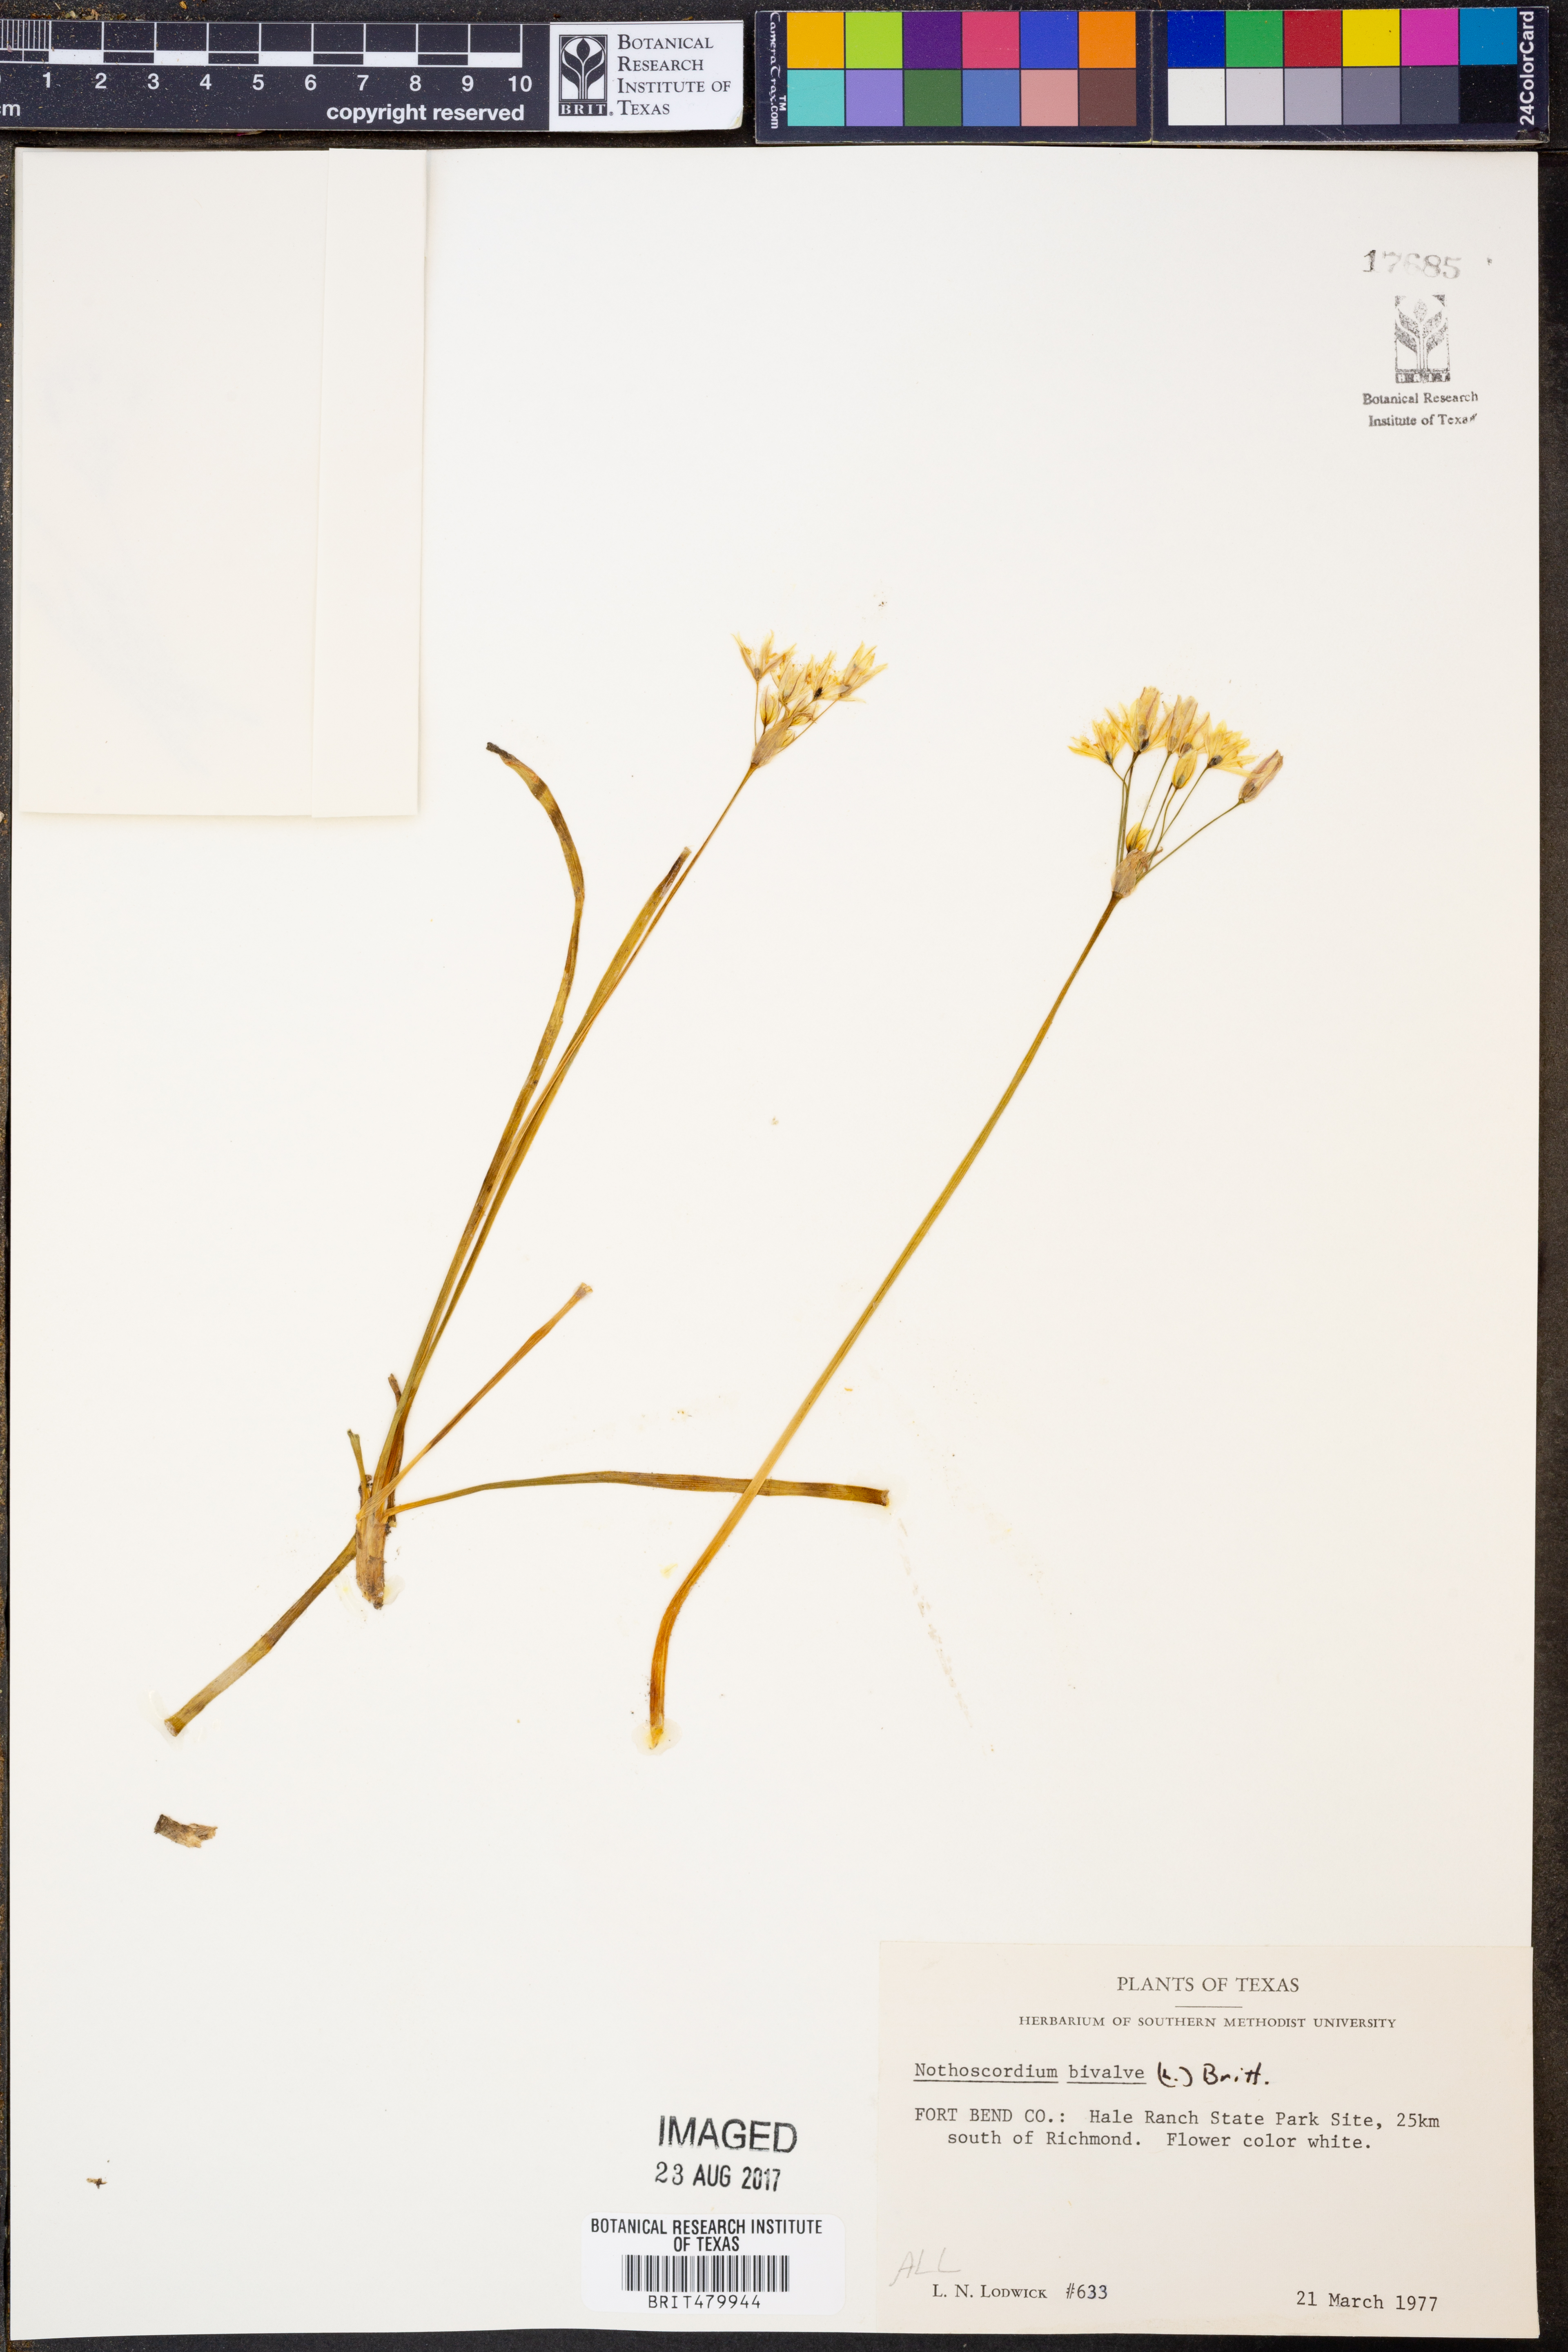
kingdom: Plantae
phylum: Tracheophyta
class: Liliopsida
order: Asparagales
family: Amaryllidaceae
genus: Nothoscordum
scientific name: Nothoscordum bivalve
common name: Crow-poison
